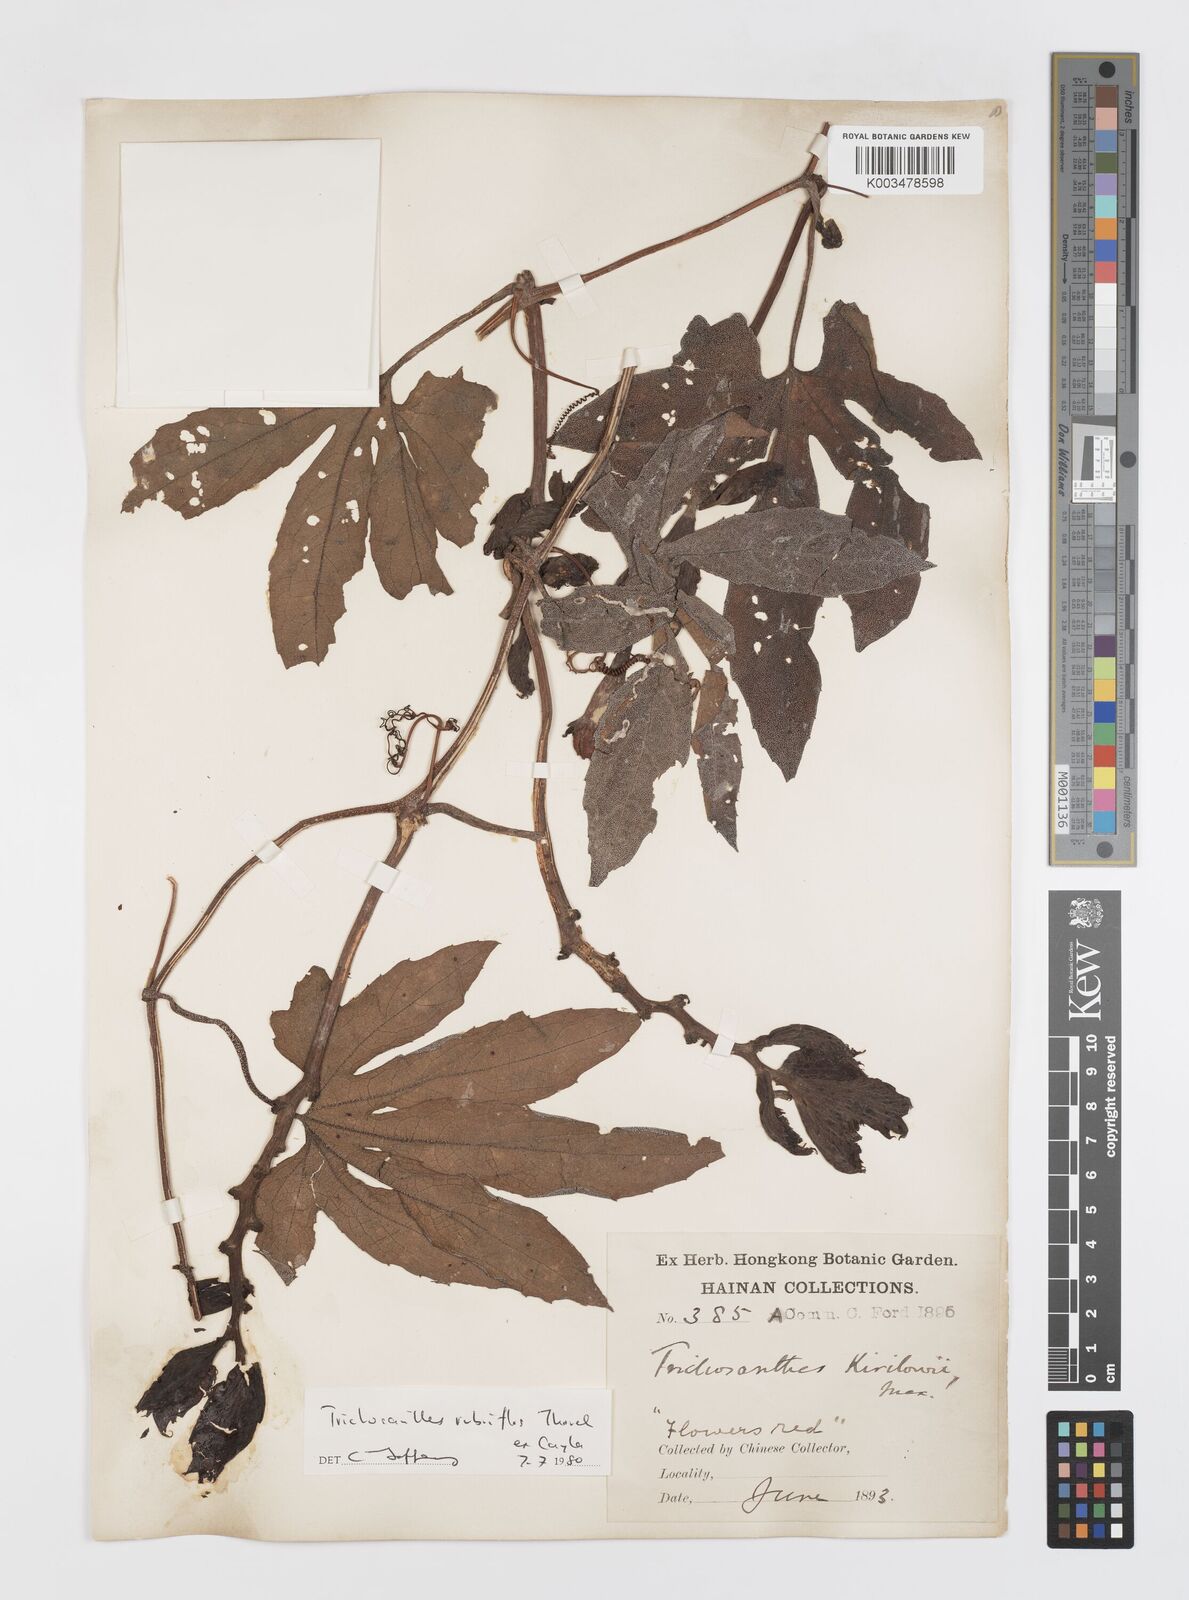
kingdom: Plantae
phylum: Tracheophyta
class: Magnoliopsida
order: Cucurbitales
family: Cucurbitaceae
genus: Trichosanthes
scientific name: Trichosanthes rubriflos
